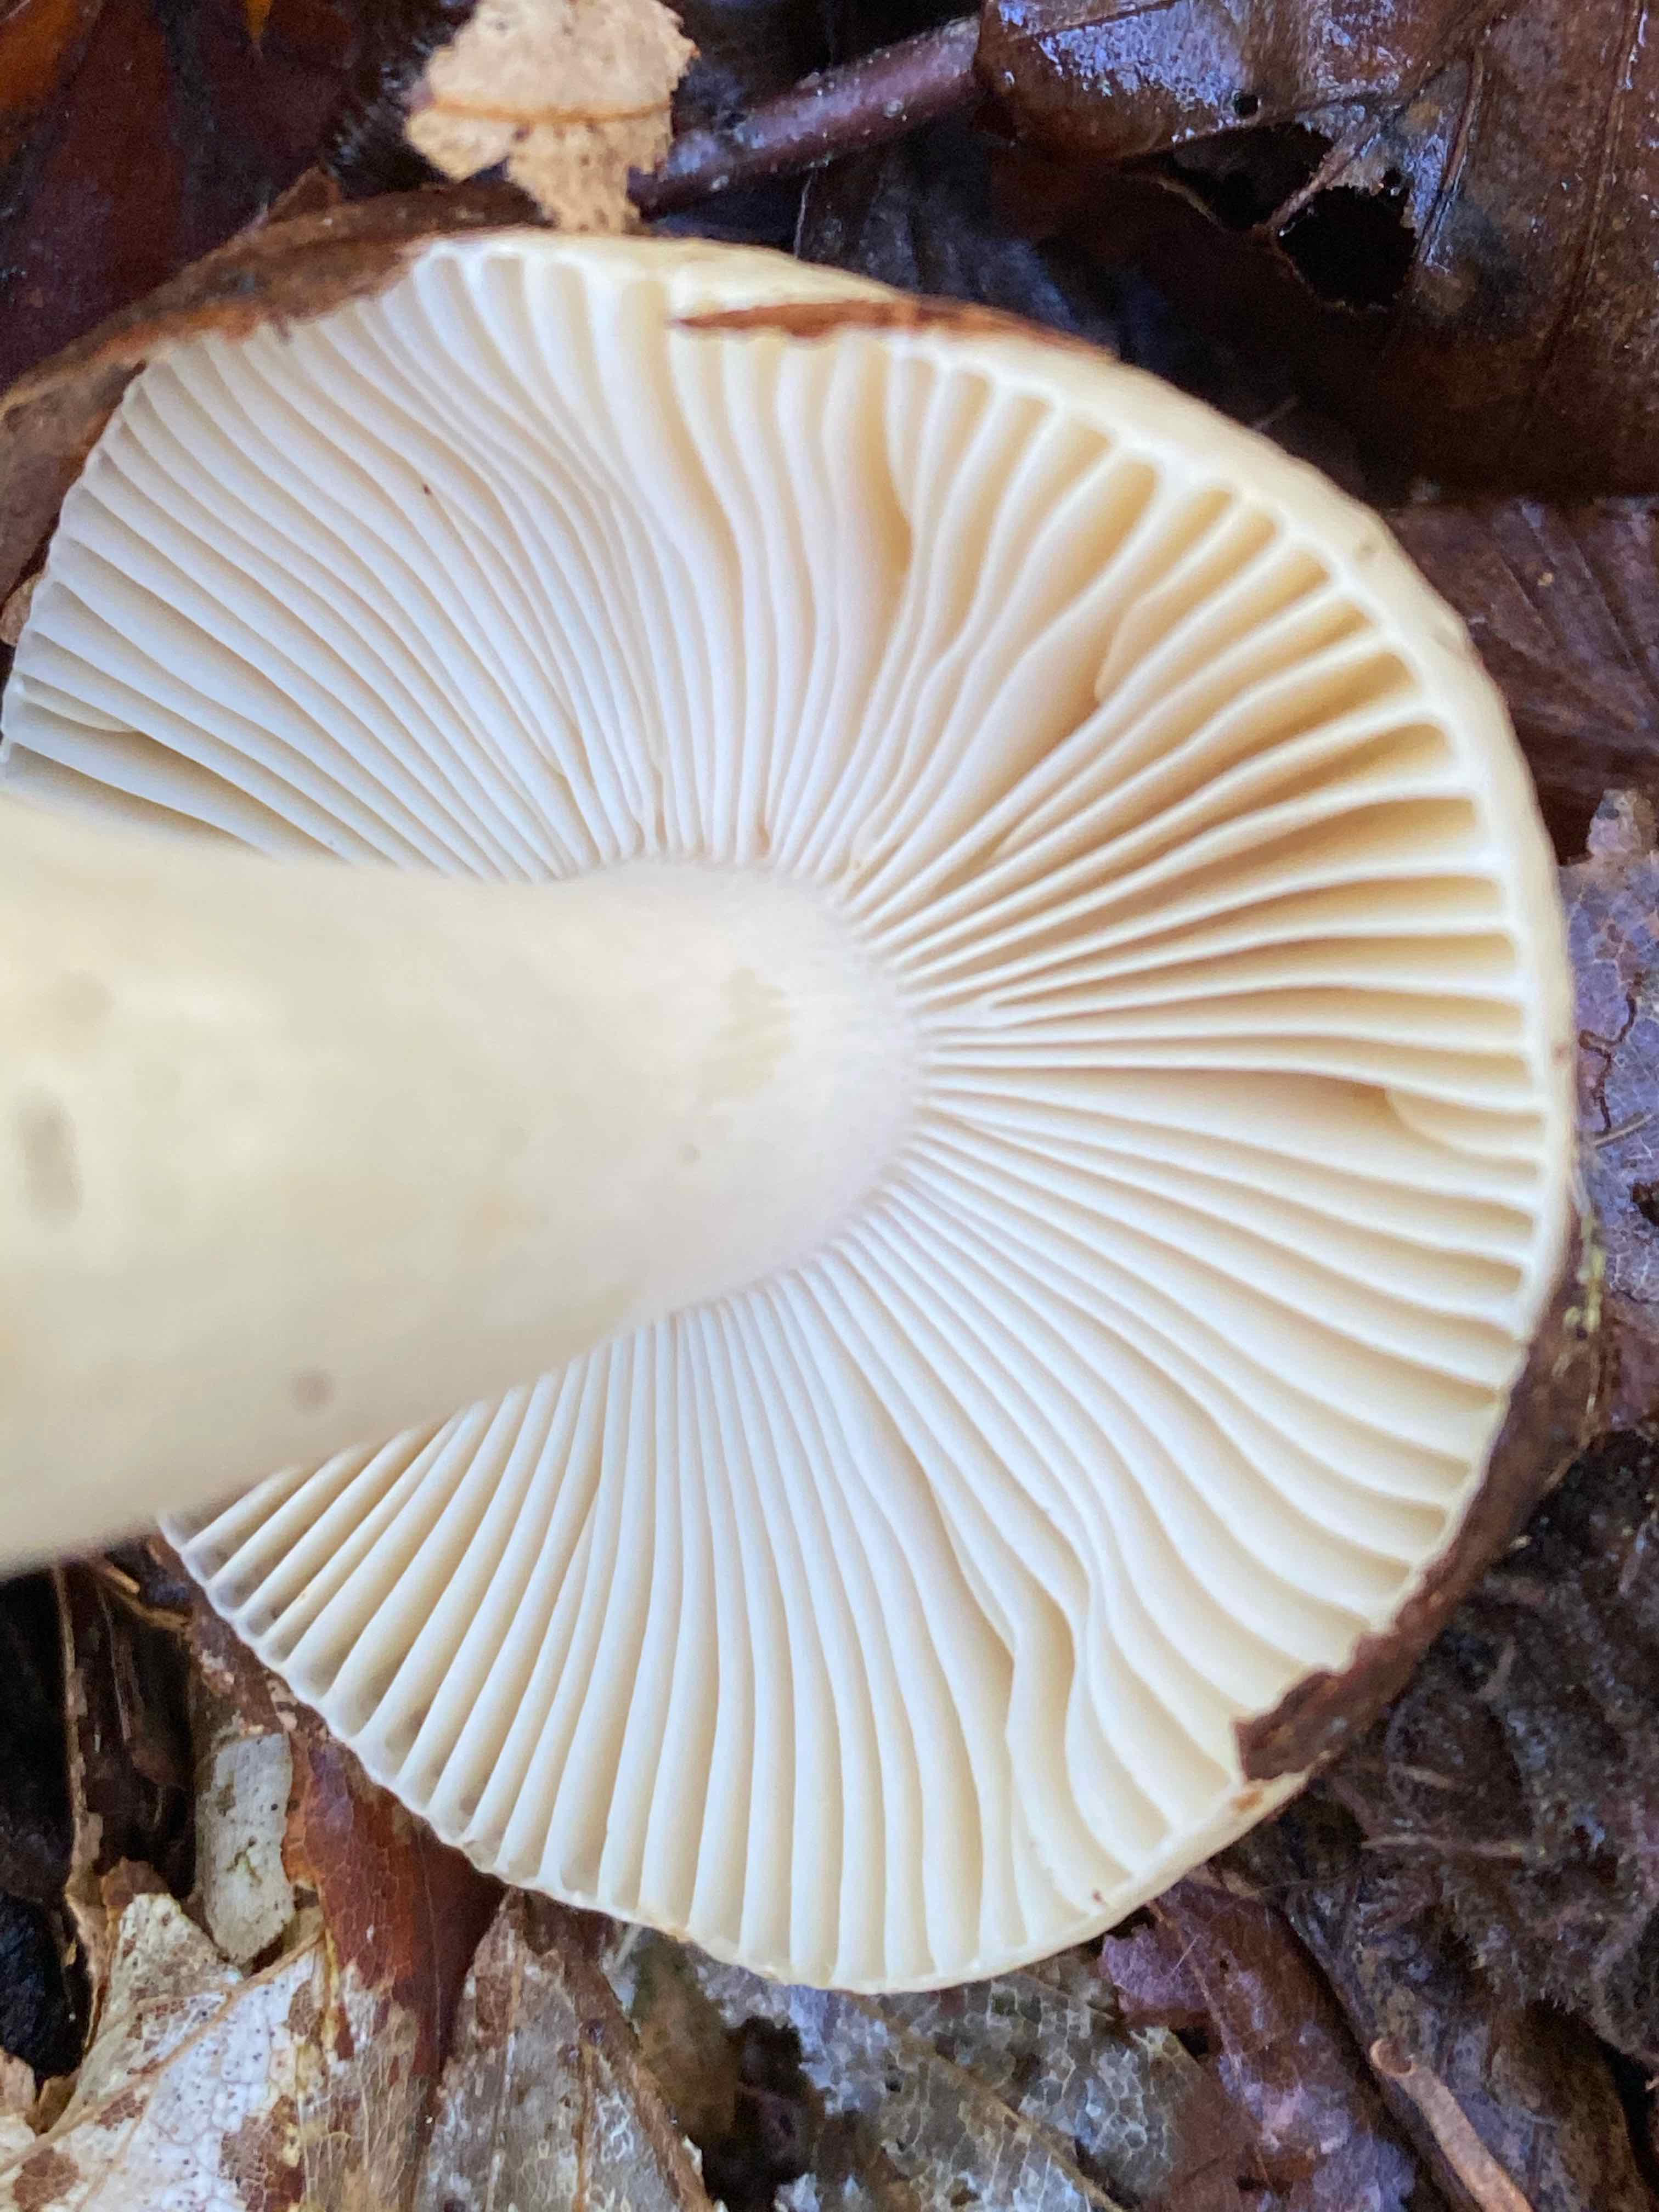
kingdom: Fungi
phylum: Basidiomycota
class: Agaricomycetes
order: Russulales
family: Russulaceae
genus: Russula
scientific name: Russula fellea
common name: galde-skørhat
